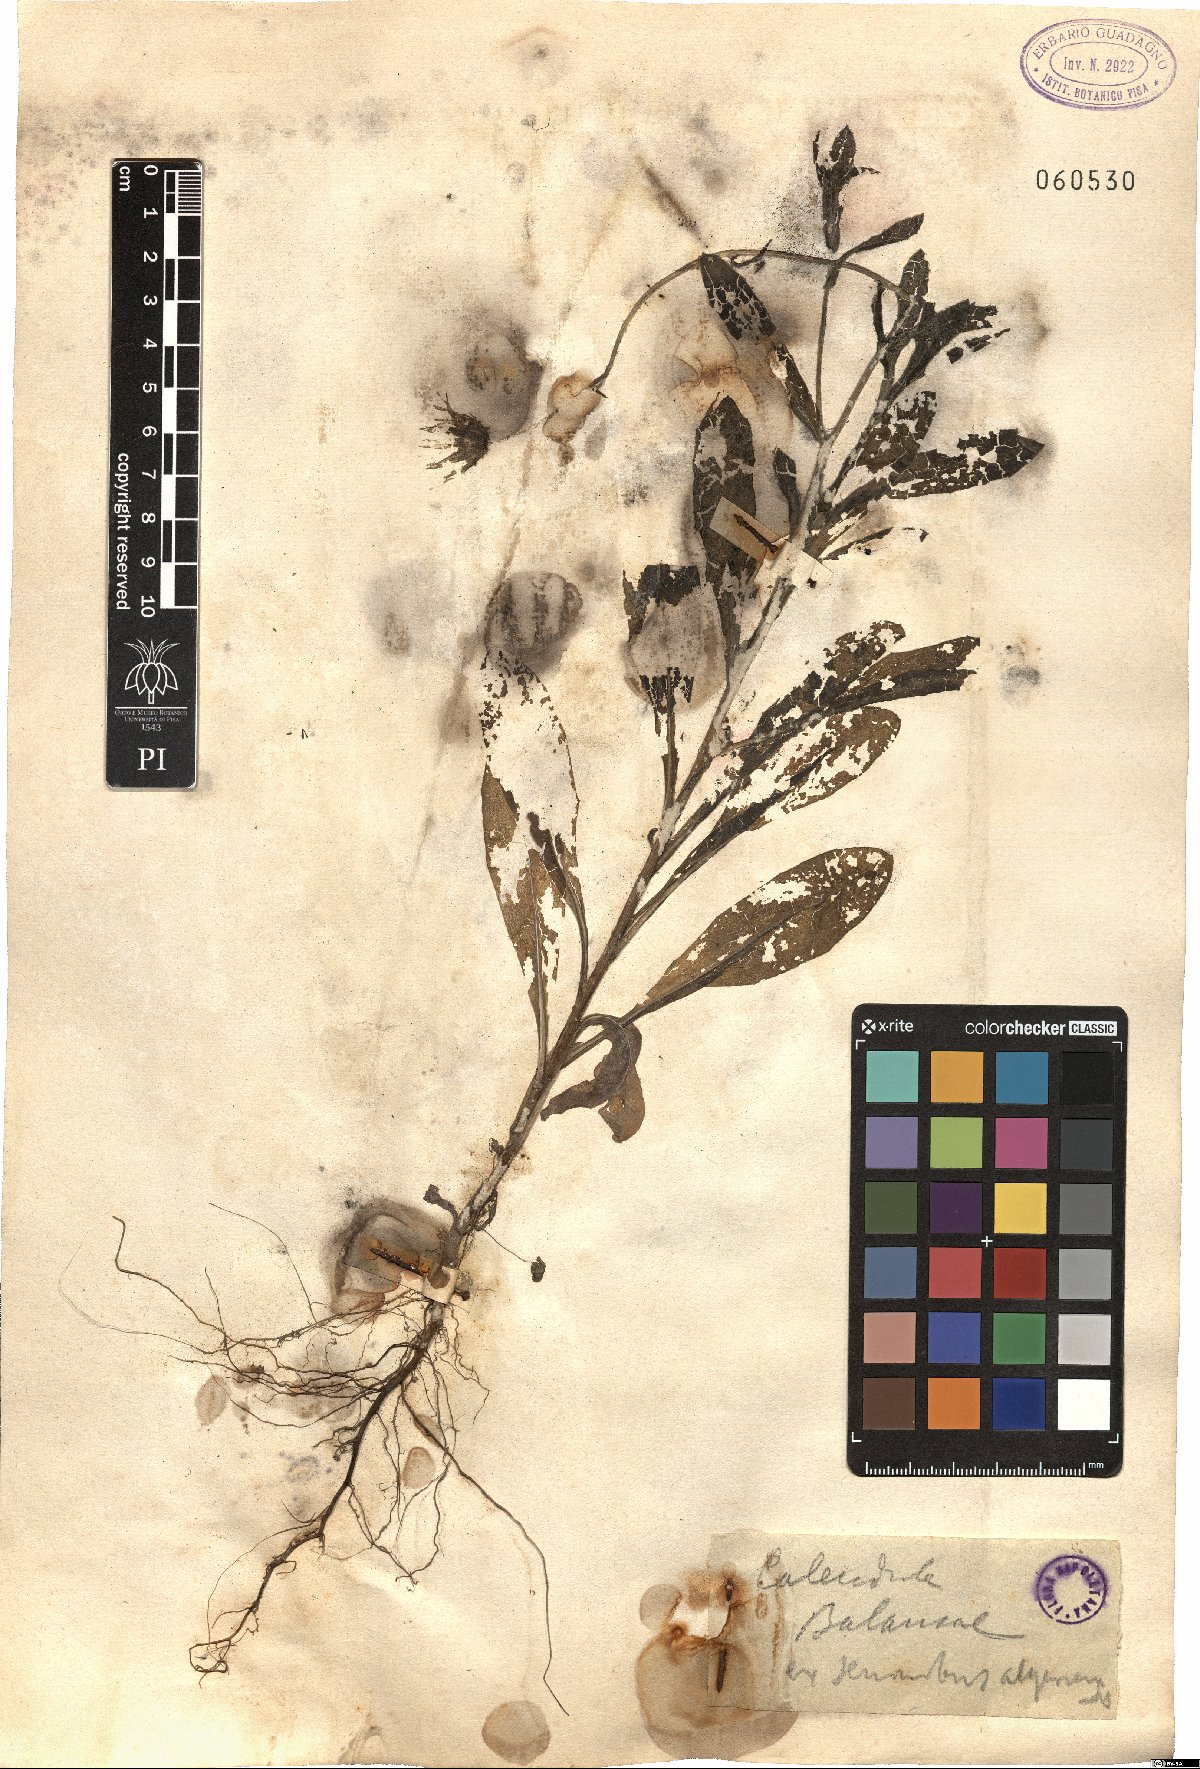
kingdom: Plantae
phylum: Tracheophyta
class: Magnoliopsida
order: Asterales
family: Asteraceae
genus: Calendula
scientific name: Calendula suffruticosa
